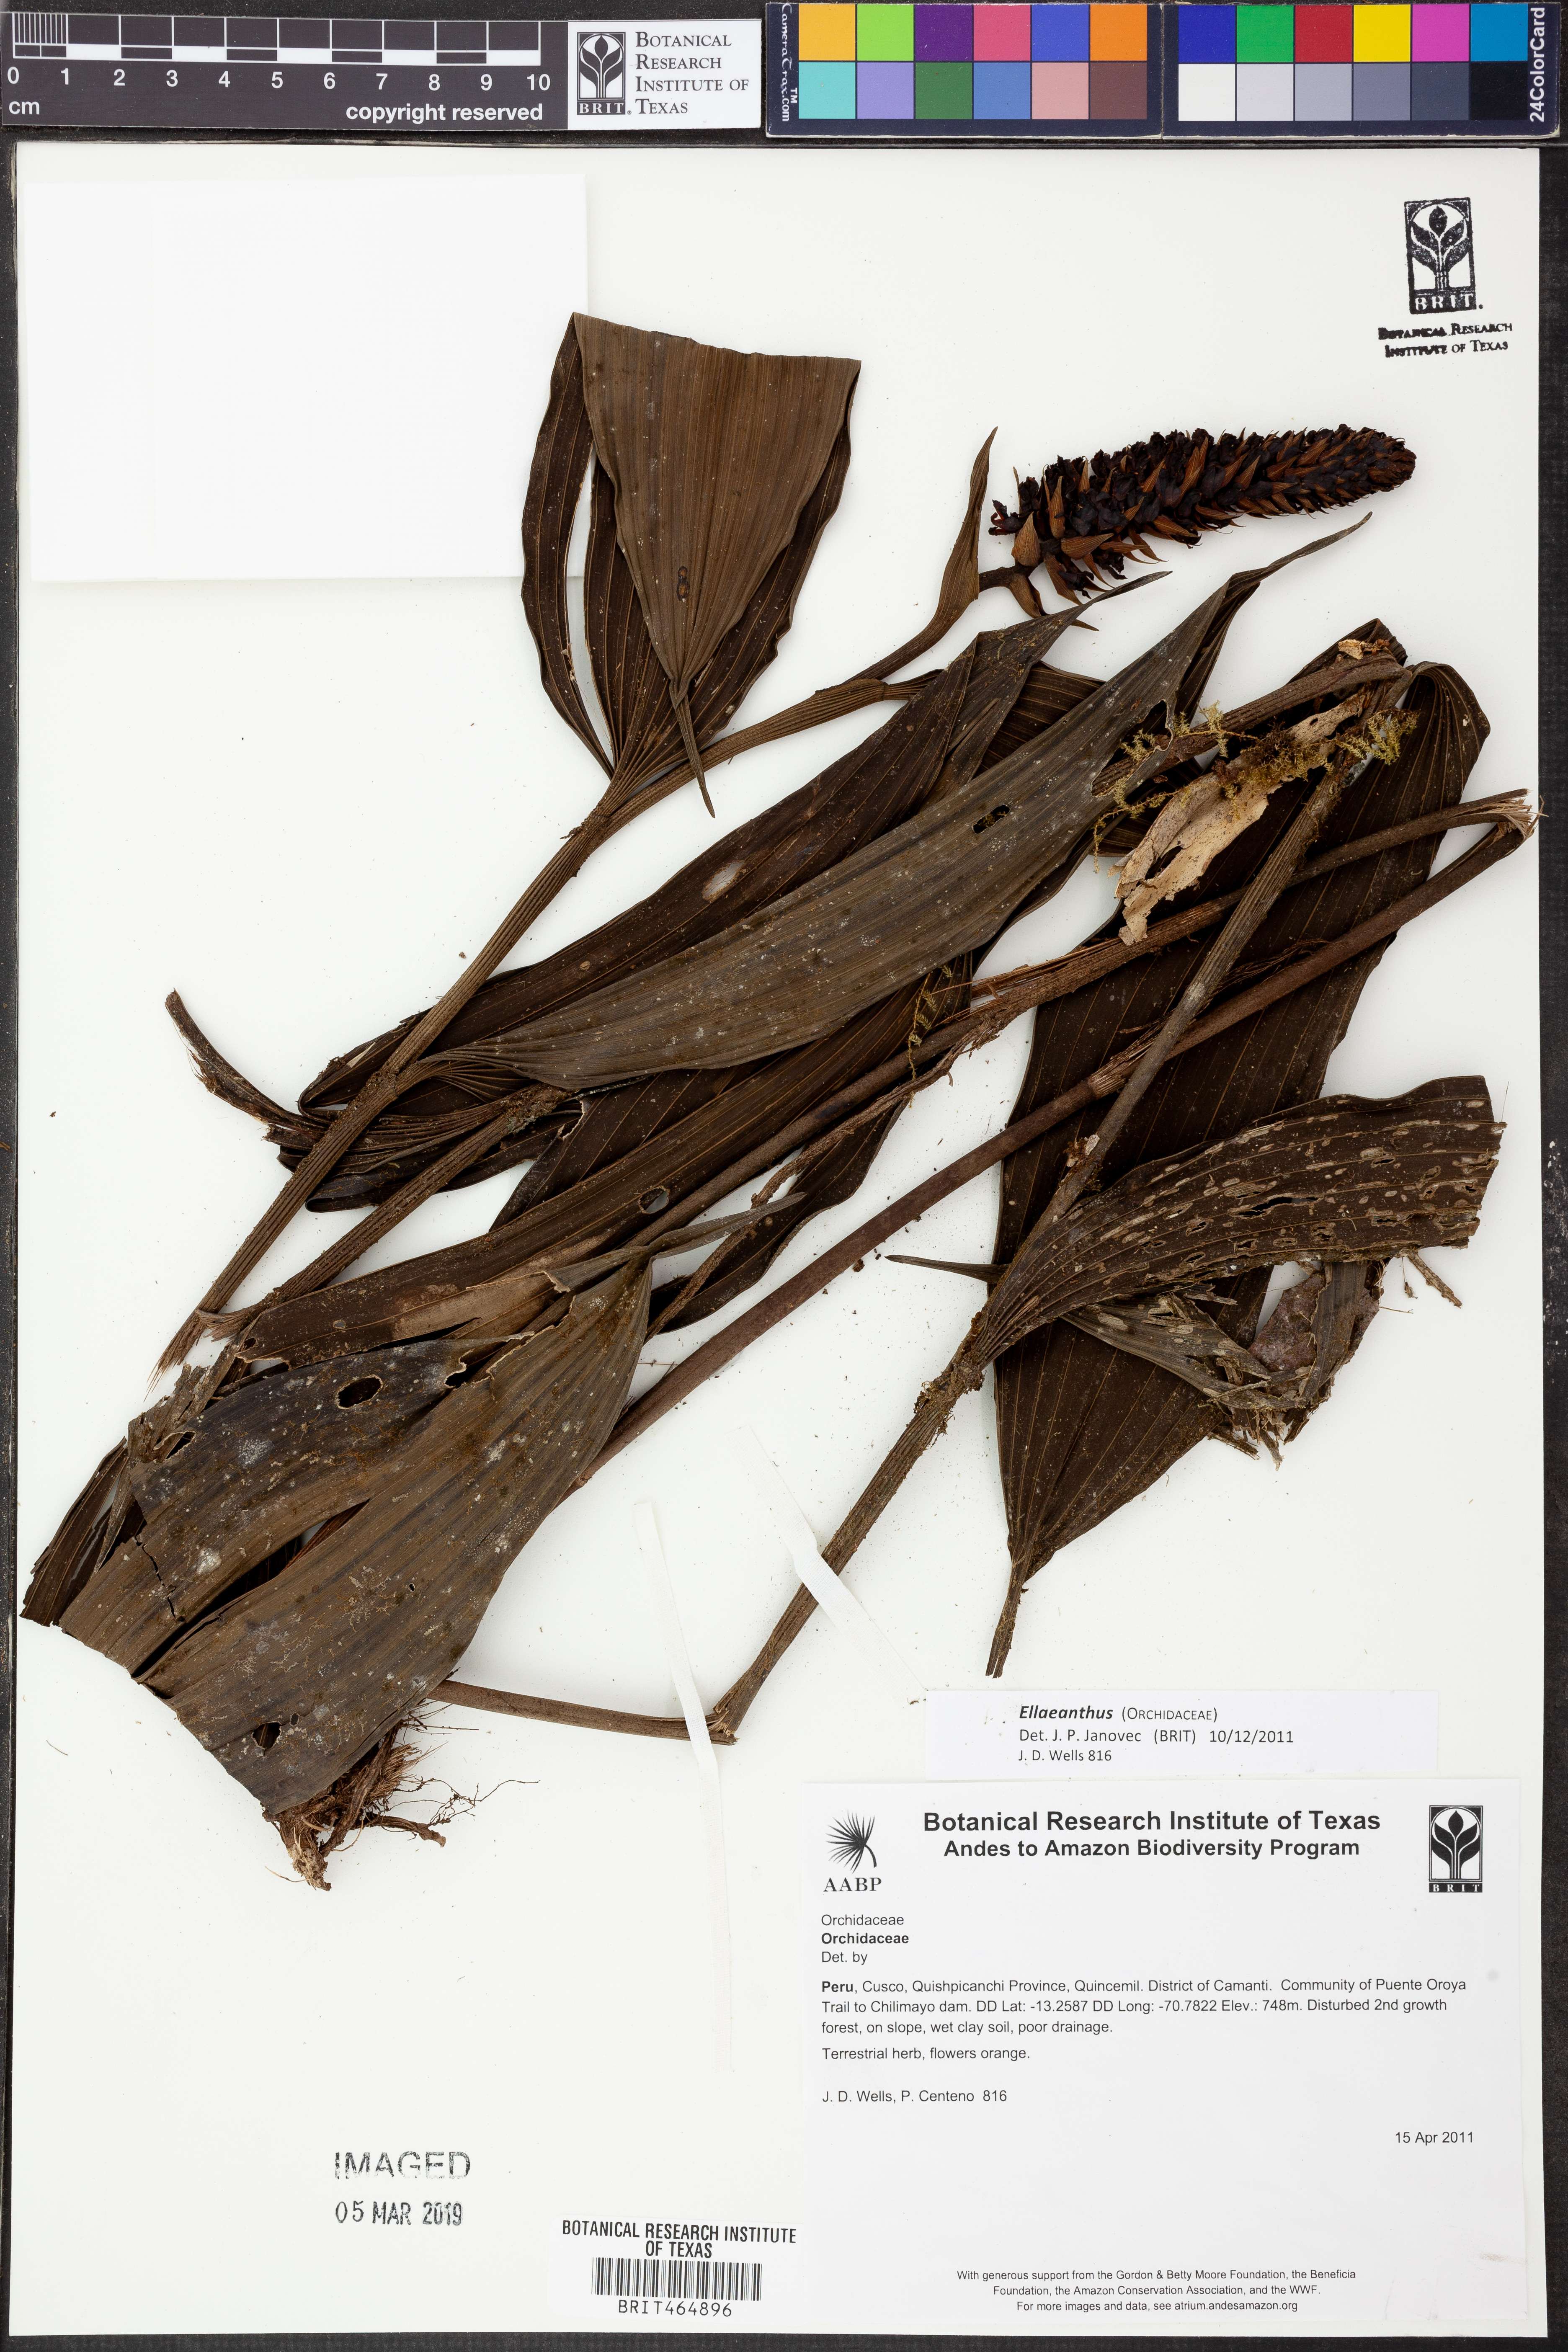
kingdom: Plantae
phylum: Tracheophyta
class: Liliopsida
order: Asparagales
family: Orchidaceae
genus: Elleanthus
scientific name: Elleanthus
